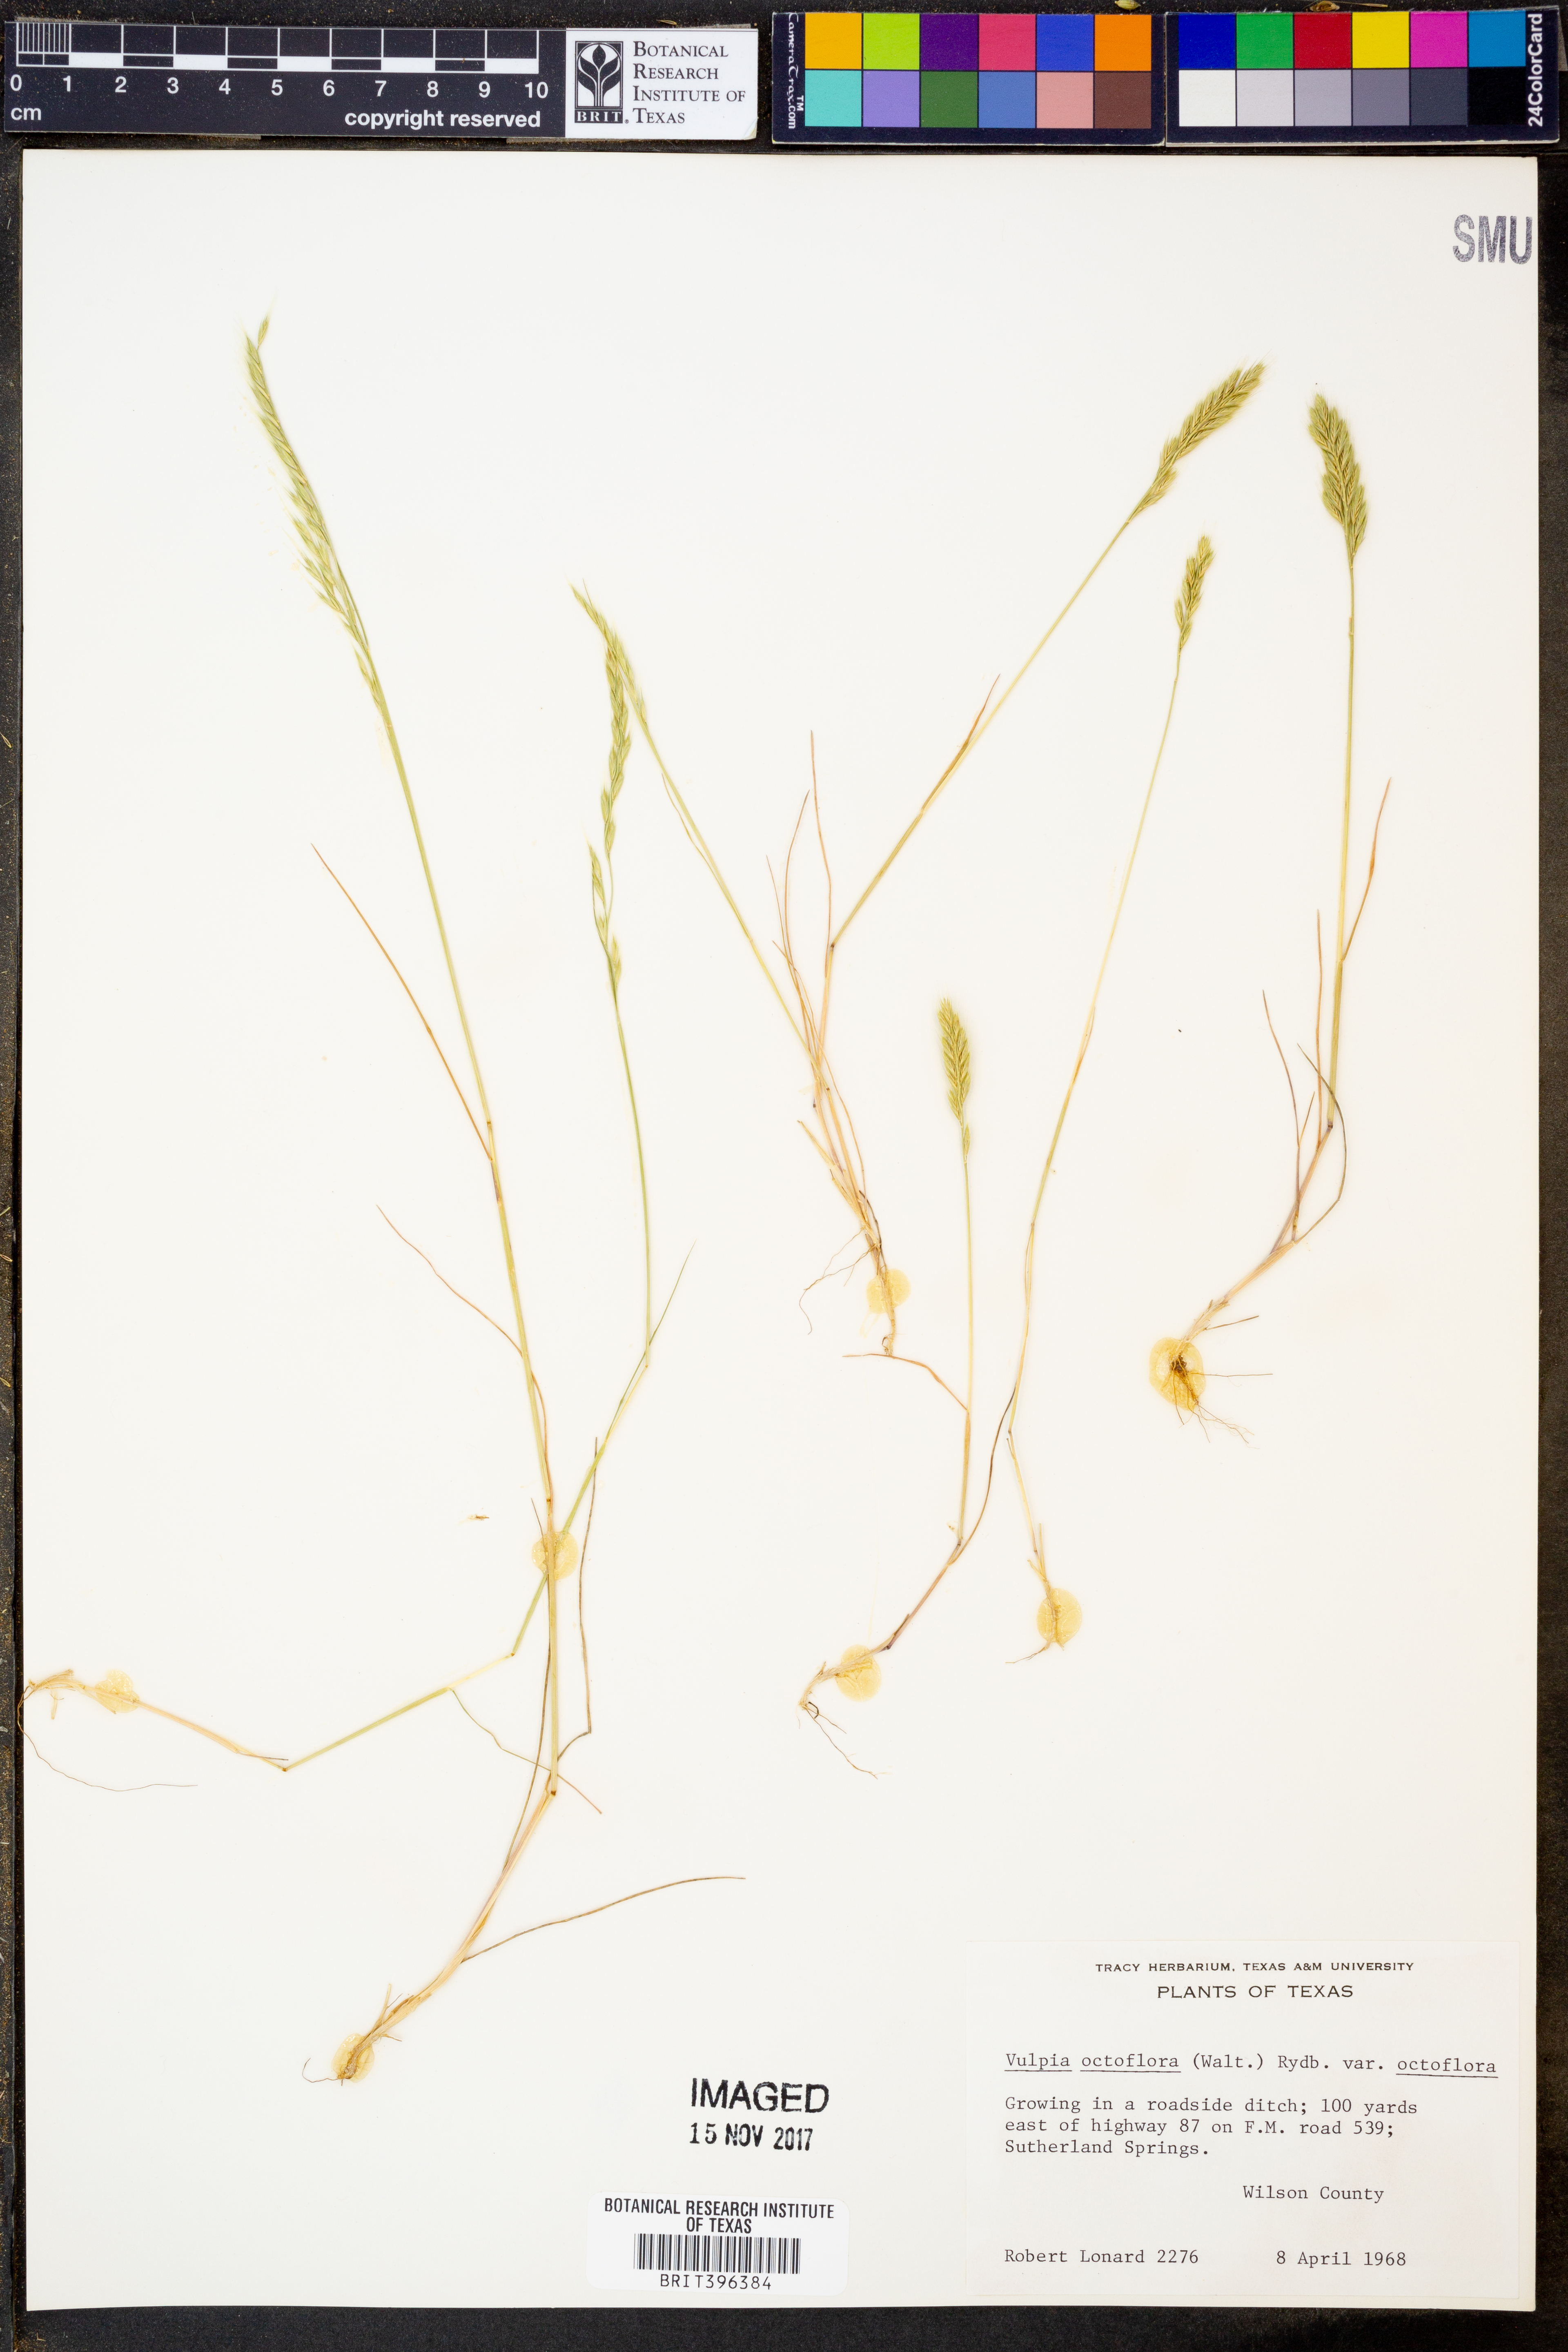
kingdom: Plantae
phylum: Tracheophyta
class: Liliopsida
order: Poales
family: Poaceae
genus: Festuca
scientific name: Festuca octoflora
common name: Sixweeks grass
